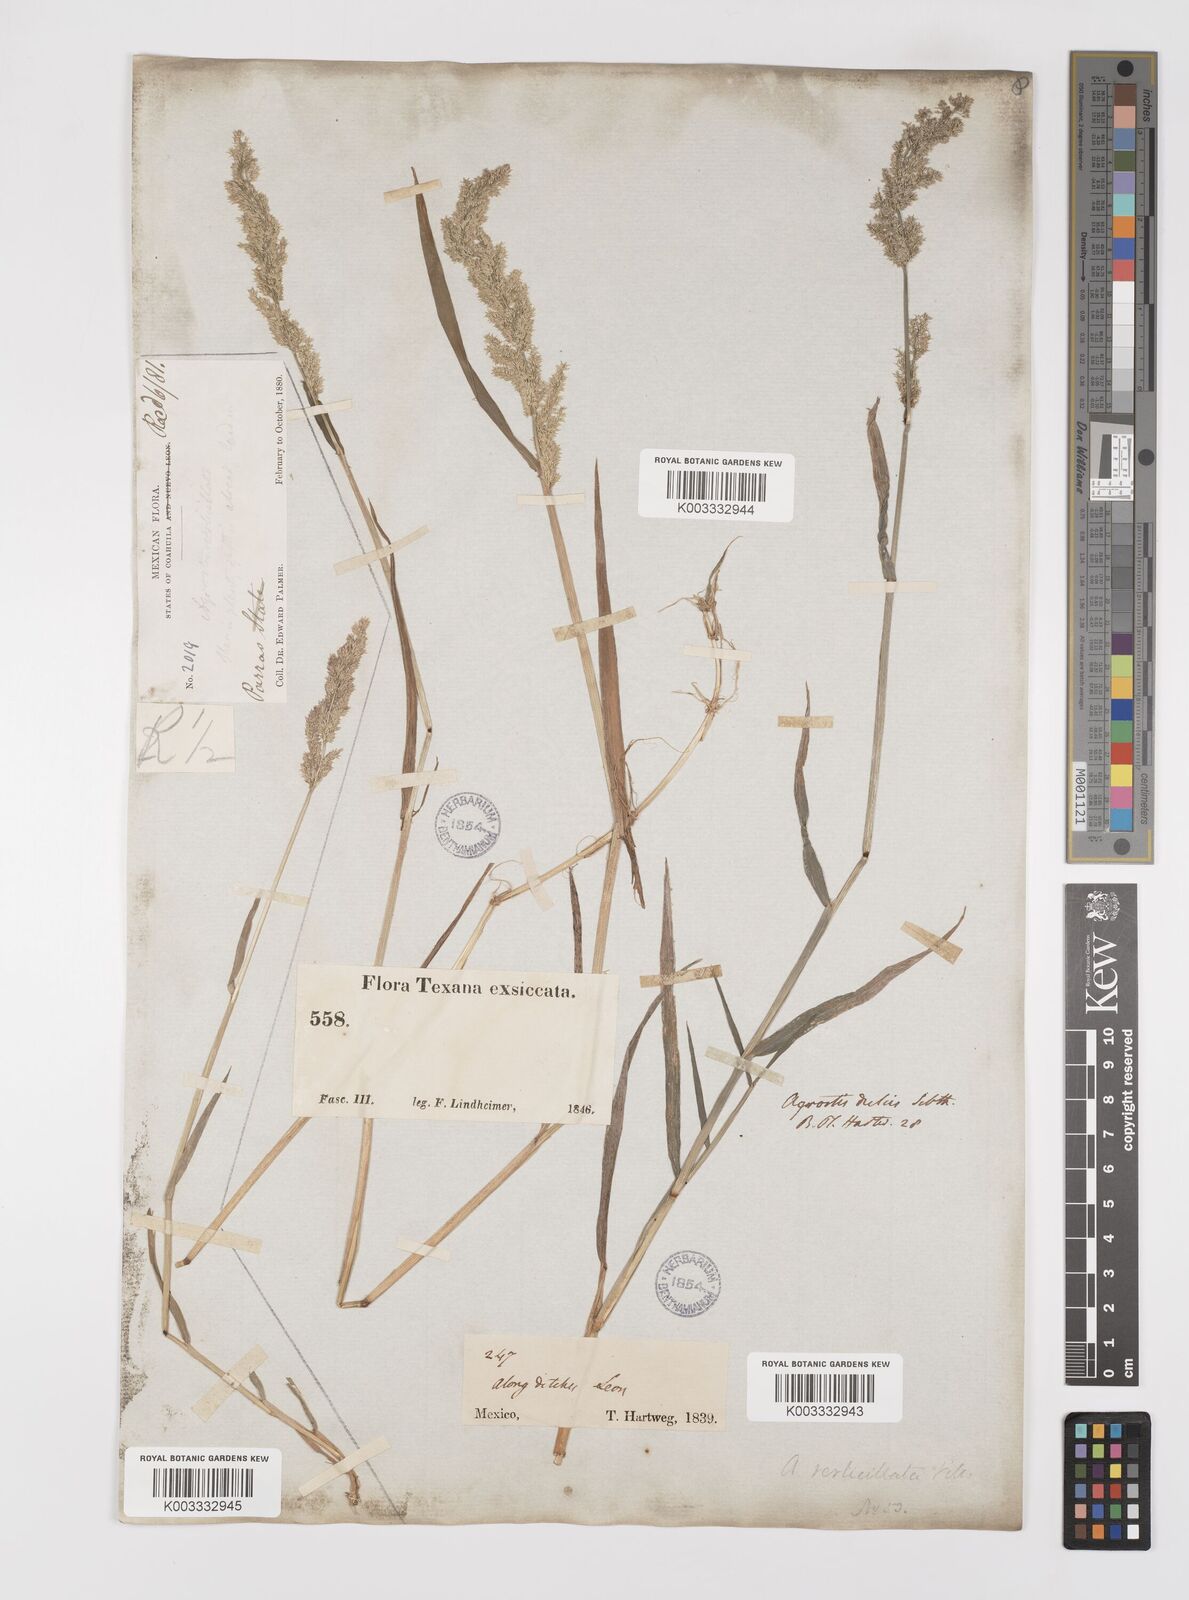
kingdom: Plantae
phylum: Tracheophyta
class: Liliopsida
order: Poales
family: Poaceae
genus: Polypogon
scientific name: Polypogon viridis
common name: Water bent
